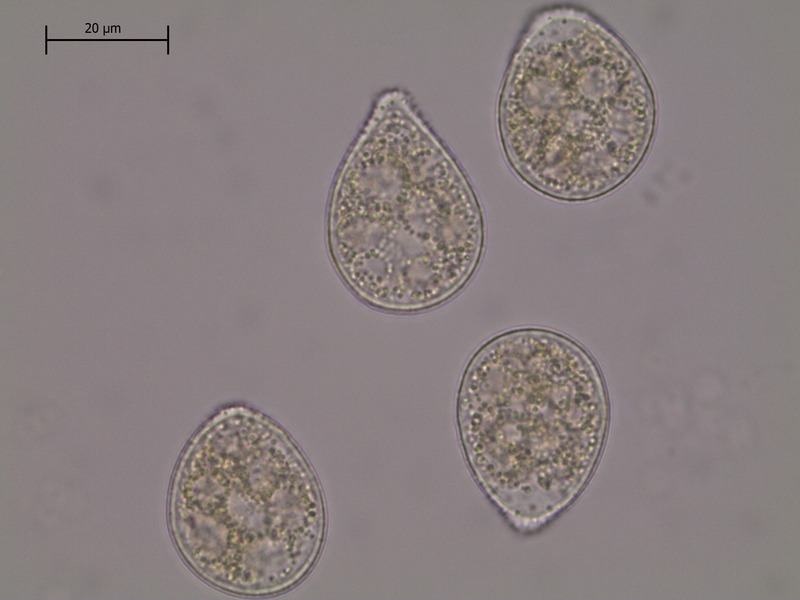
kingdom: Fungi
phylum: Basidiomycota
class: Pucciniomycetes
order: Pucciniales
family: Pucciniastraceae
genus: Naohidemyces
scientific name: Naohidemyces vaccinii
